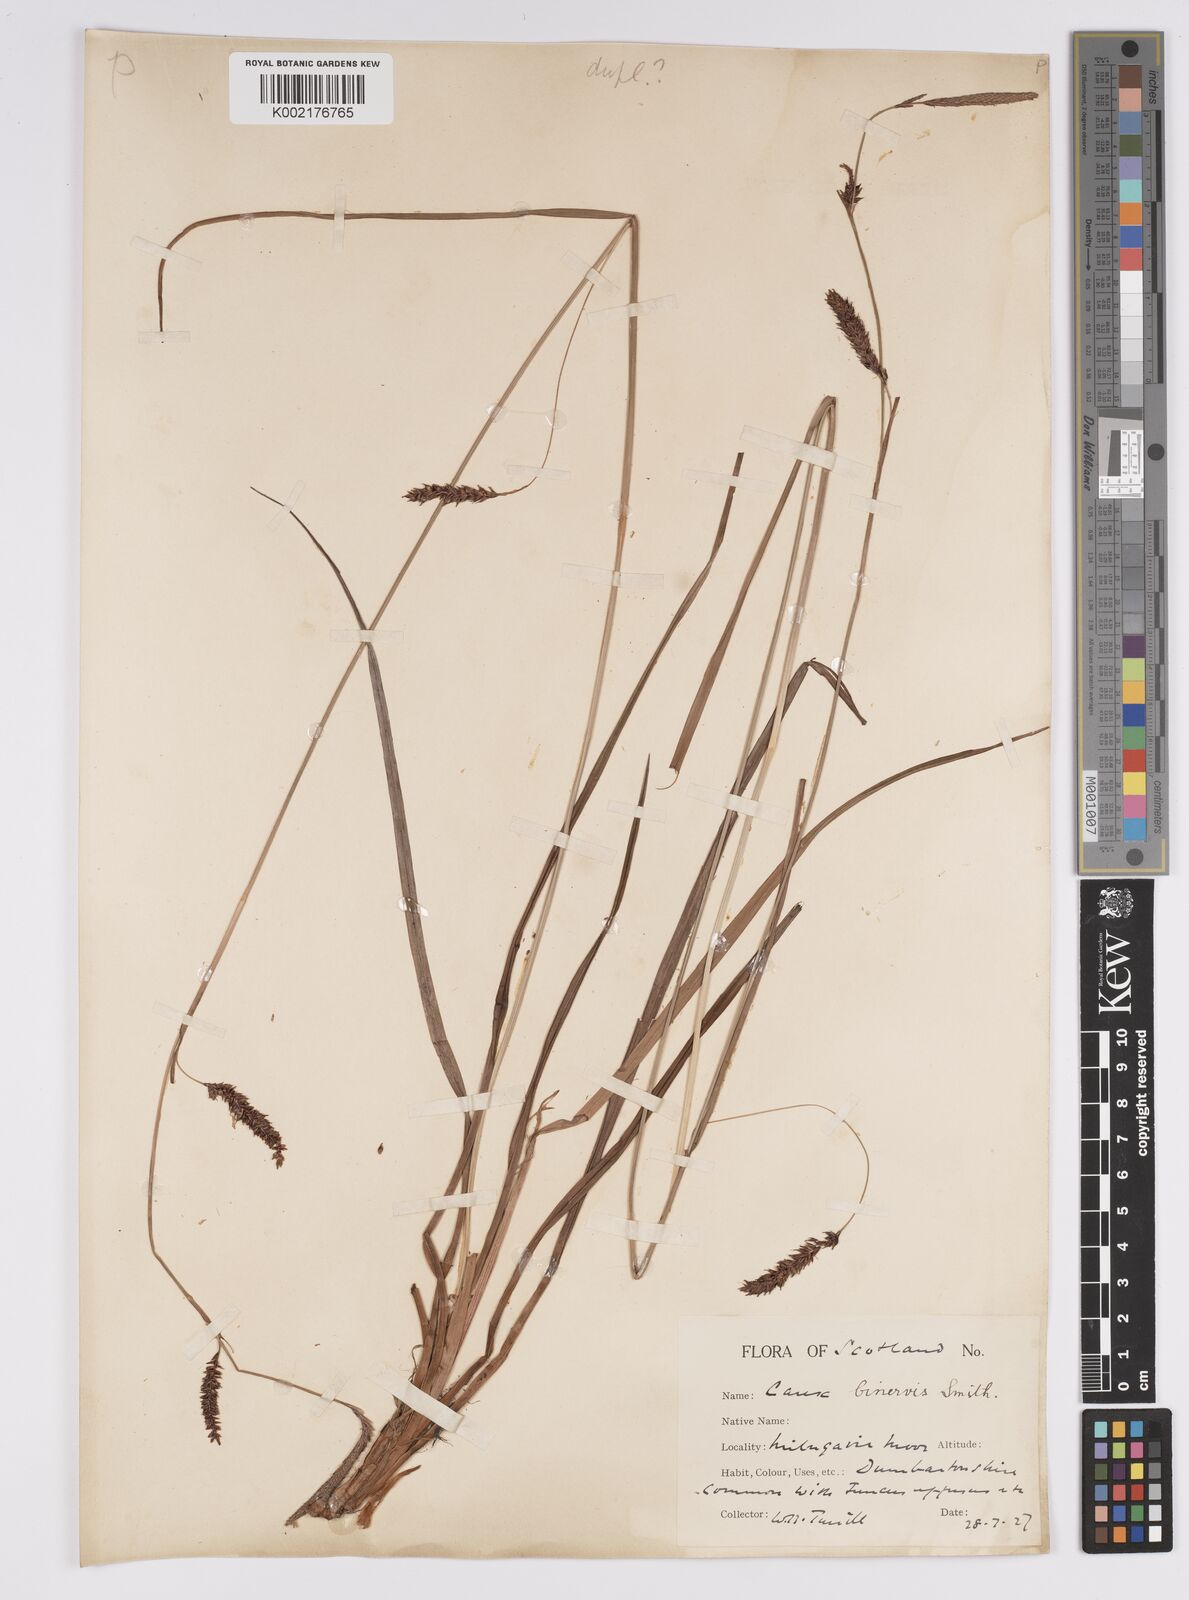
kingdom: Plantae
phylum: Tracheophyta
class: Liliopsida
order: Poales
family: Cyperaceae
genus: Carex
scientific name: Carex binervis
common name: Green-ribbed sedge
